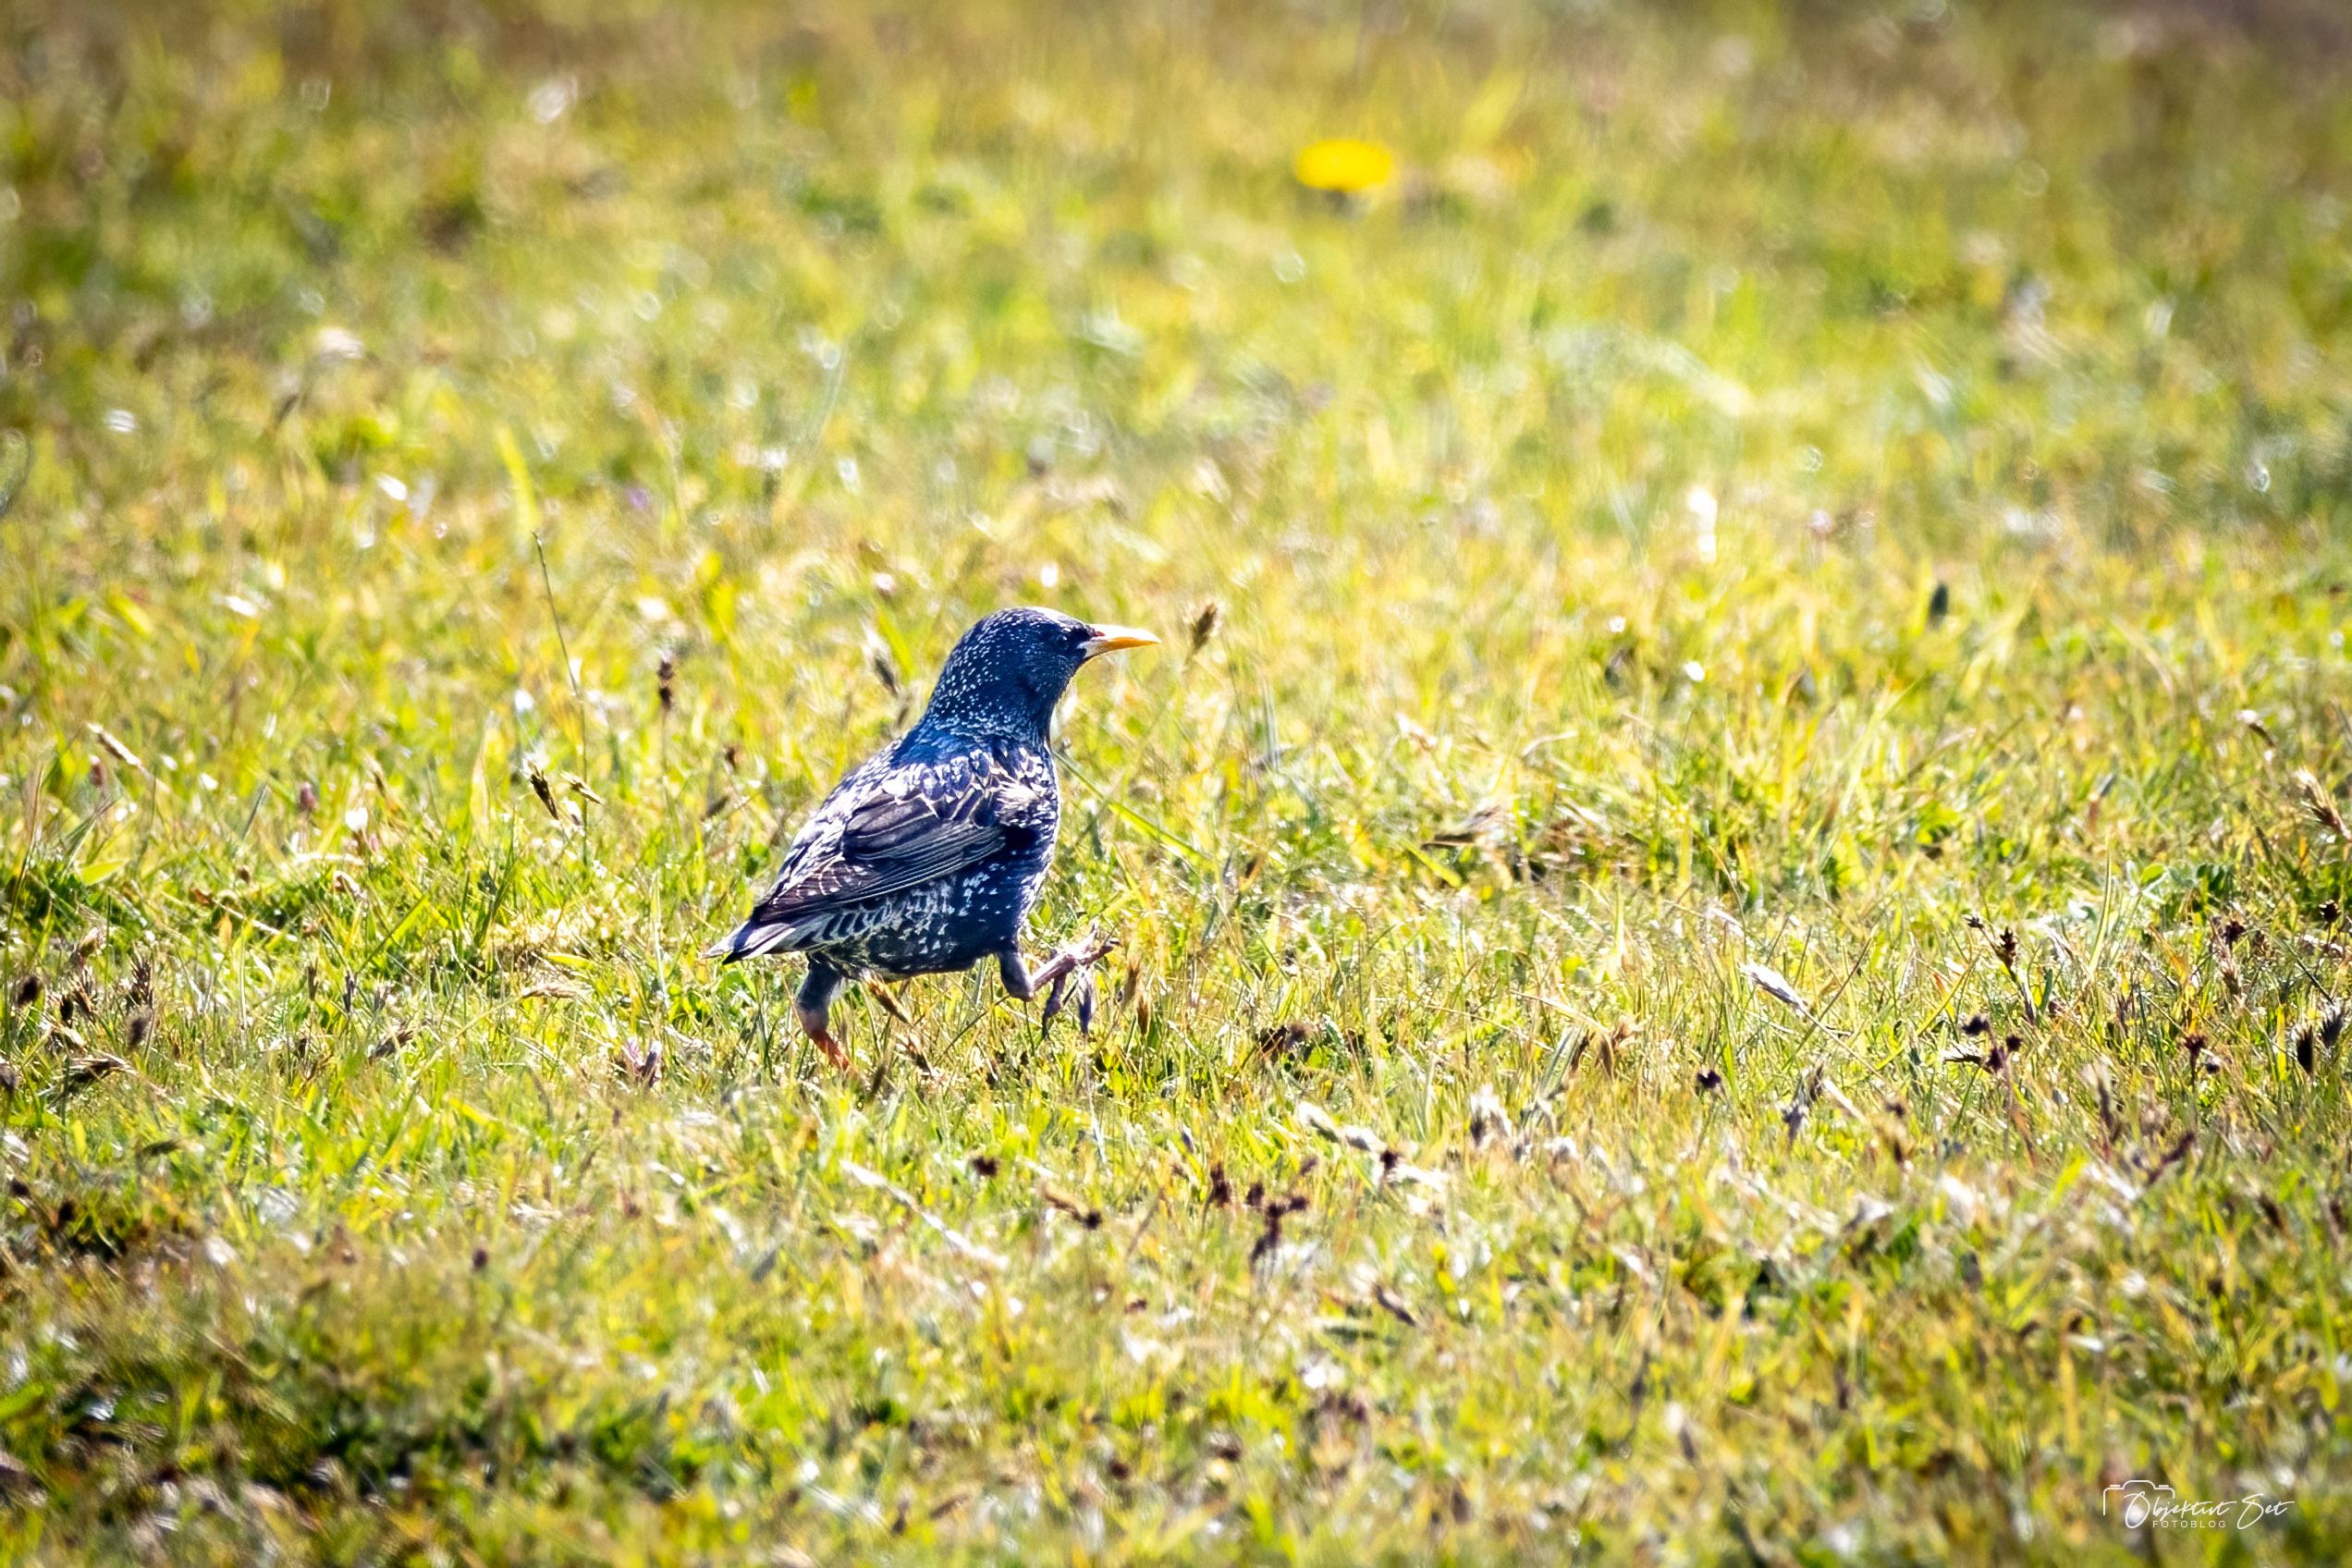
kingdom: Animalia
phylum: Chordata
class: Aves
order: Passeriformes
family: Sturnidae
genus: Sturnus
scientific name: Sturnus vulgaris
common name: Stær
